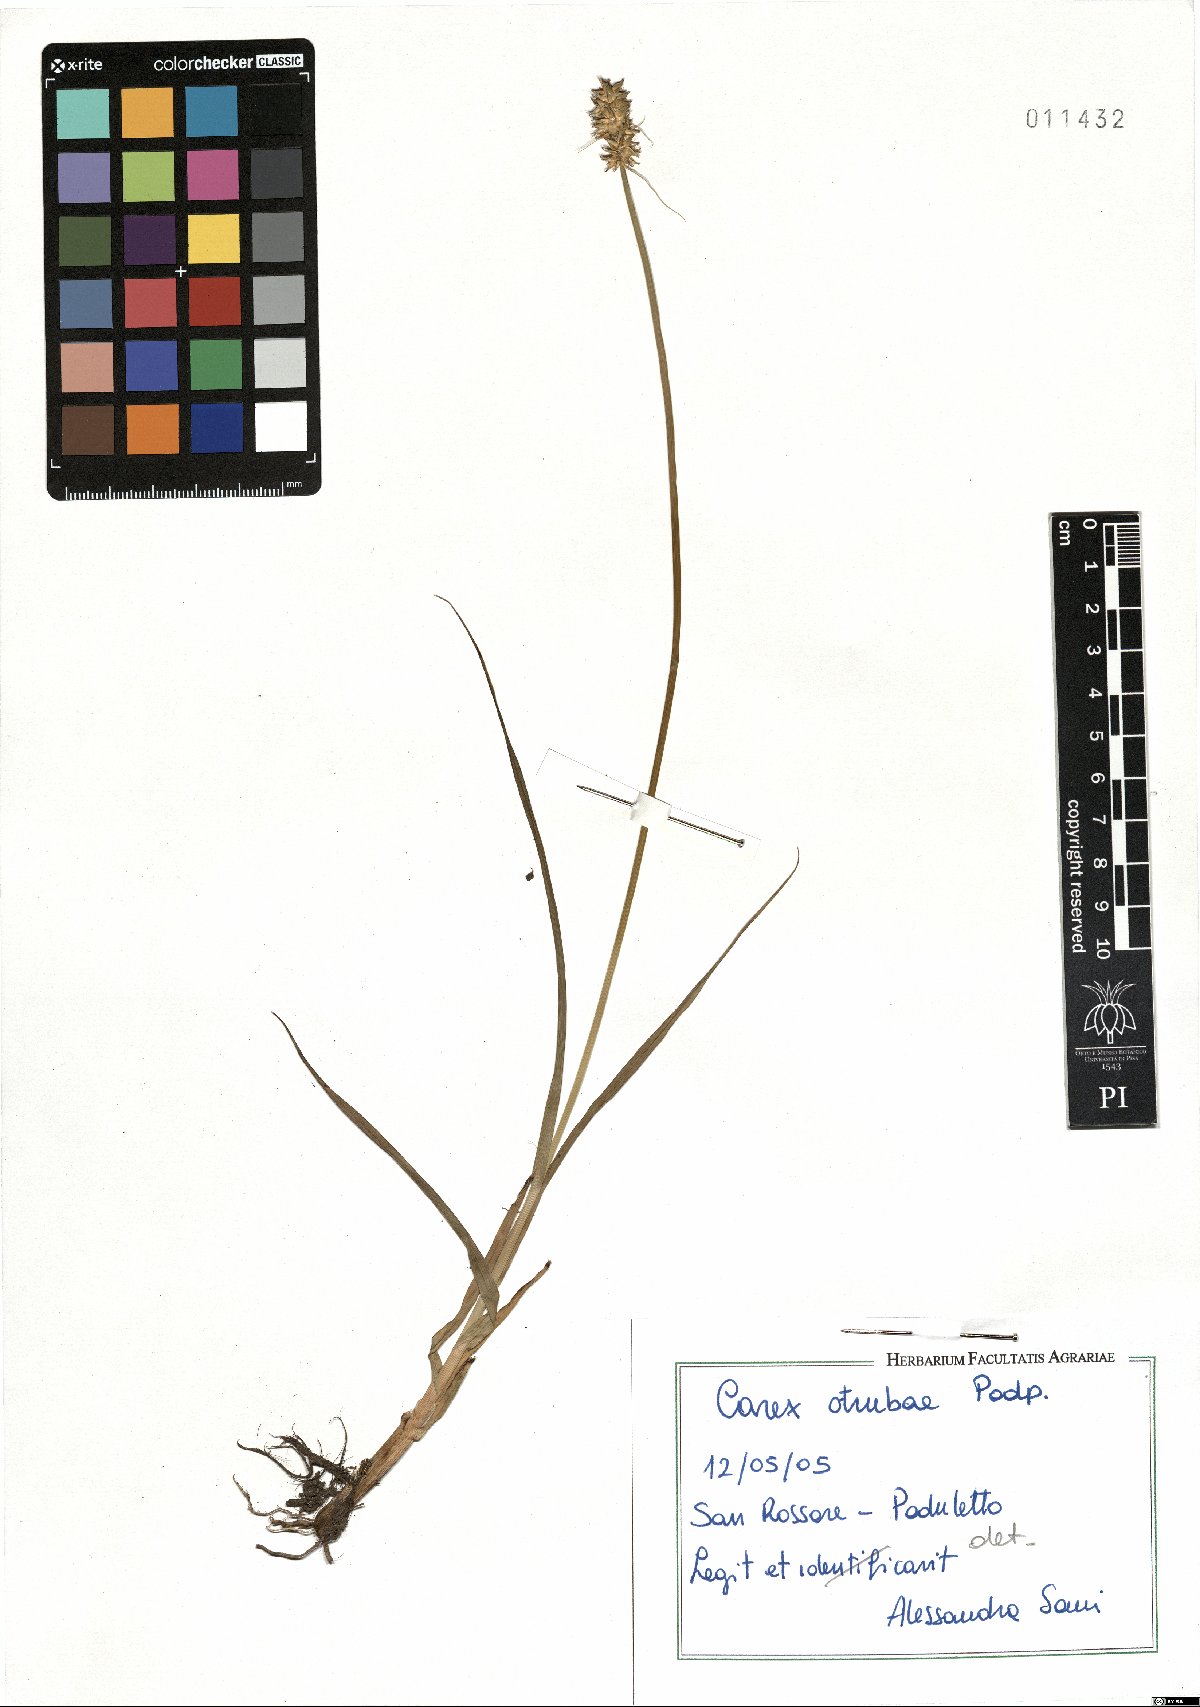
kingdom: Plantae
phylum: Tracheophyta
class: Liliopsida
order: Poales
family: Cyperaceae
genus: Carex
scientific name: Carex otrubae
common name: False fox-sedge
